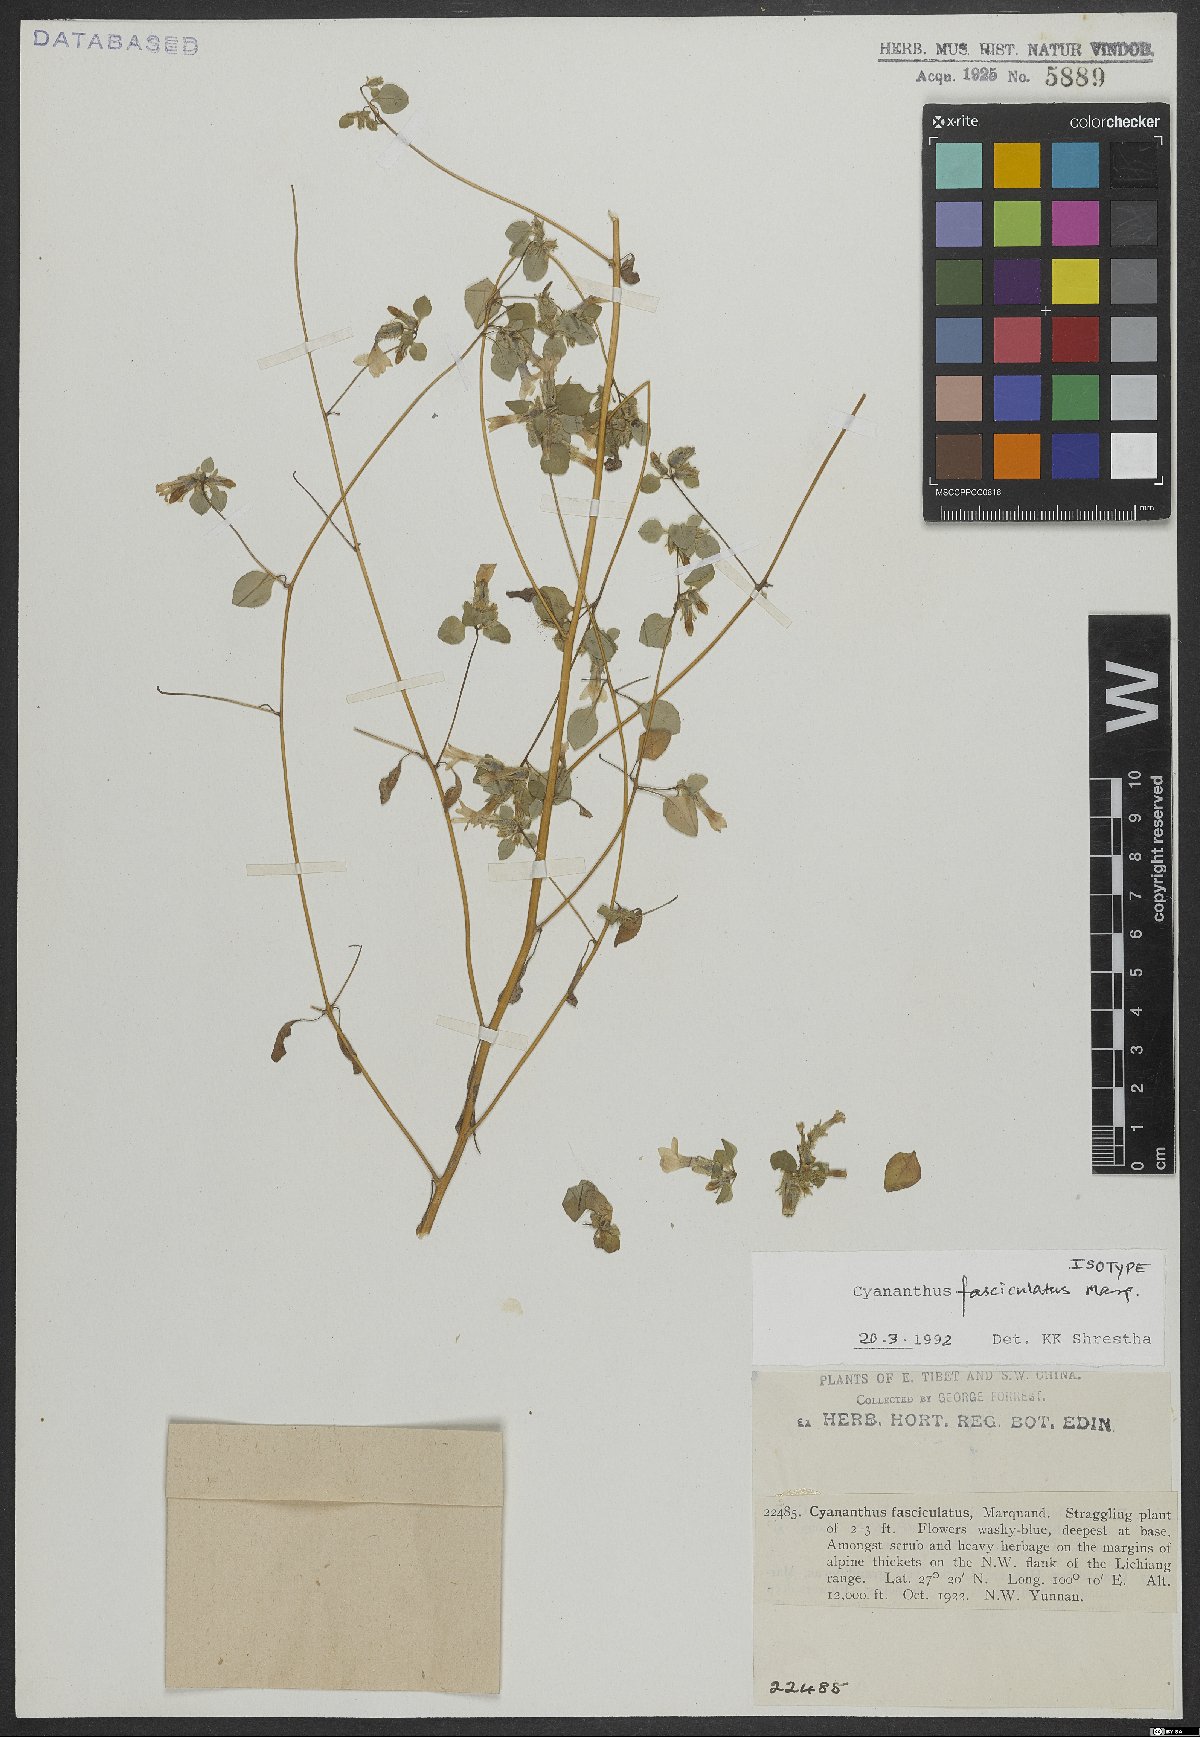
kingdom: Plantae
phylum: Tracheophyta
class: Magnoliopsida
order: Asterales
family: Campanulaceae
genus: Cyananthus
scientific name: Cyananthus fasciculatus
